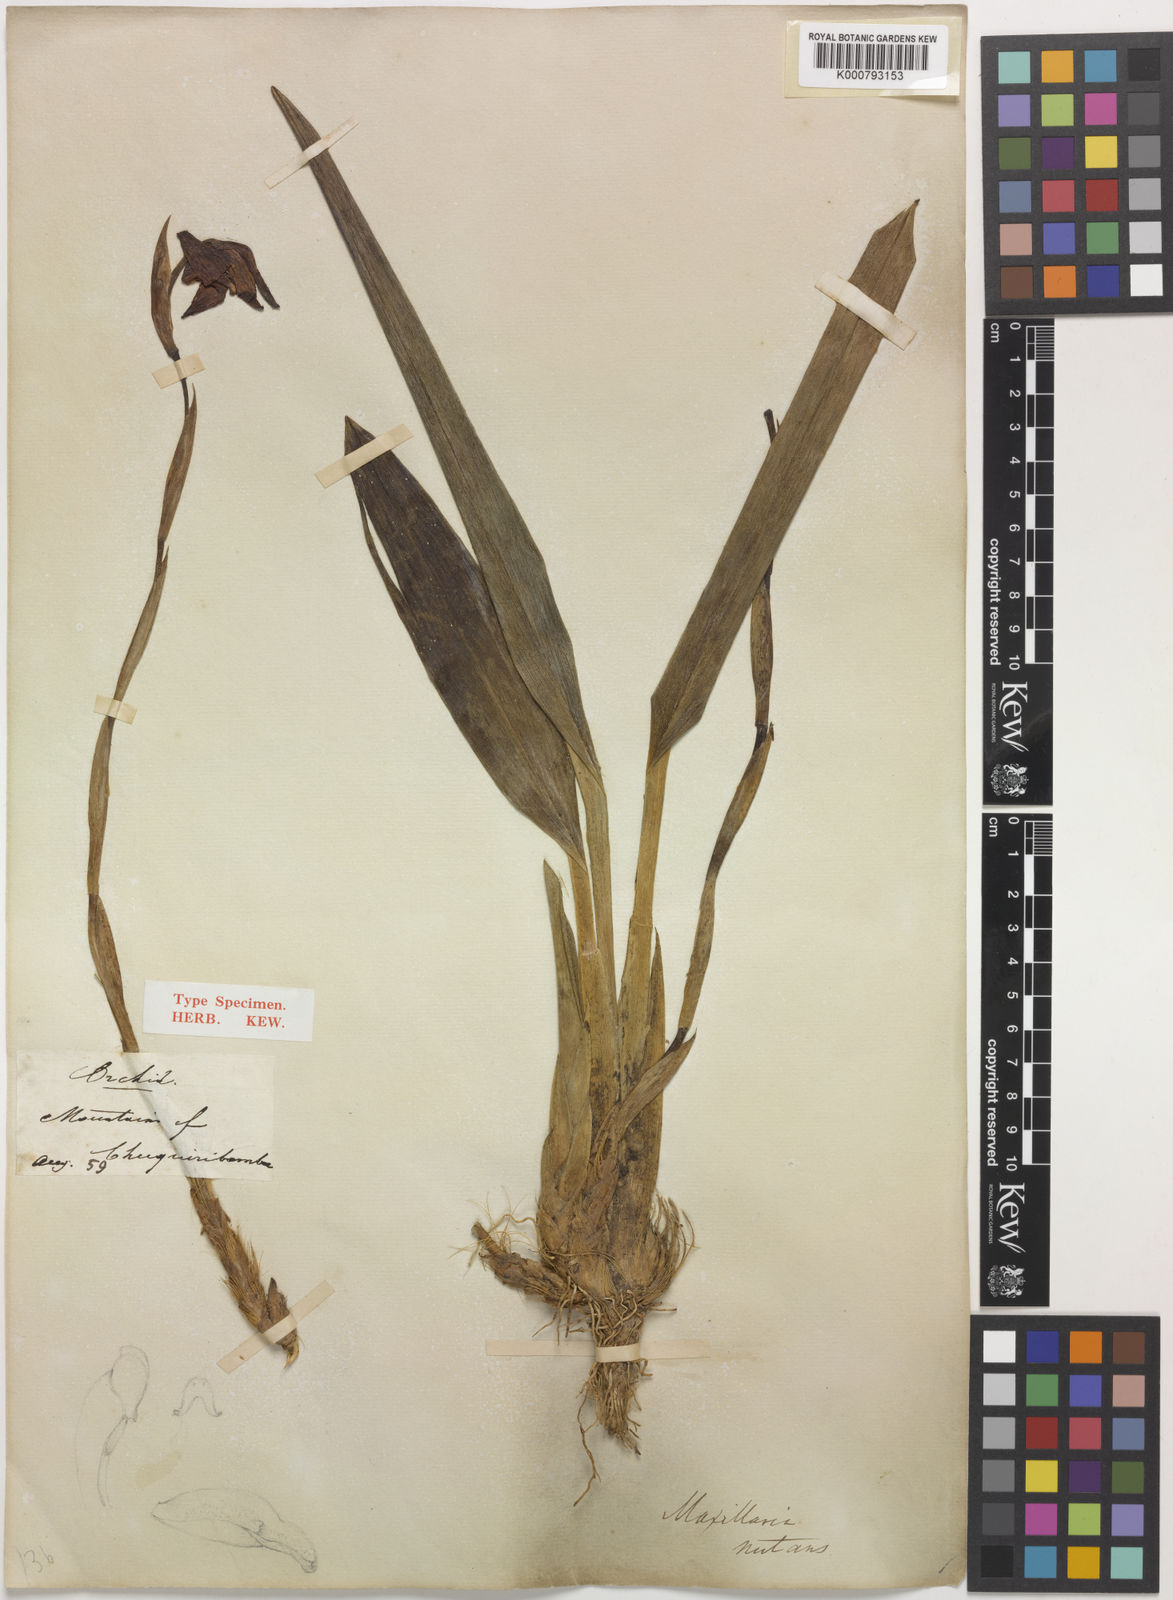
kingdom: Plantae
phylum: Tracheophyta
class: Liliopsida
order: Asparagales
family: Orchidaceae
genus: Maxillaria
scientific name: Maxillaria nutans
